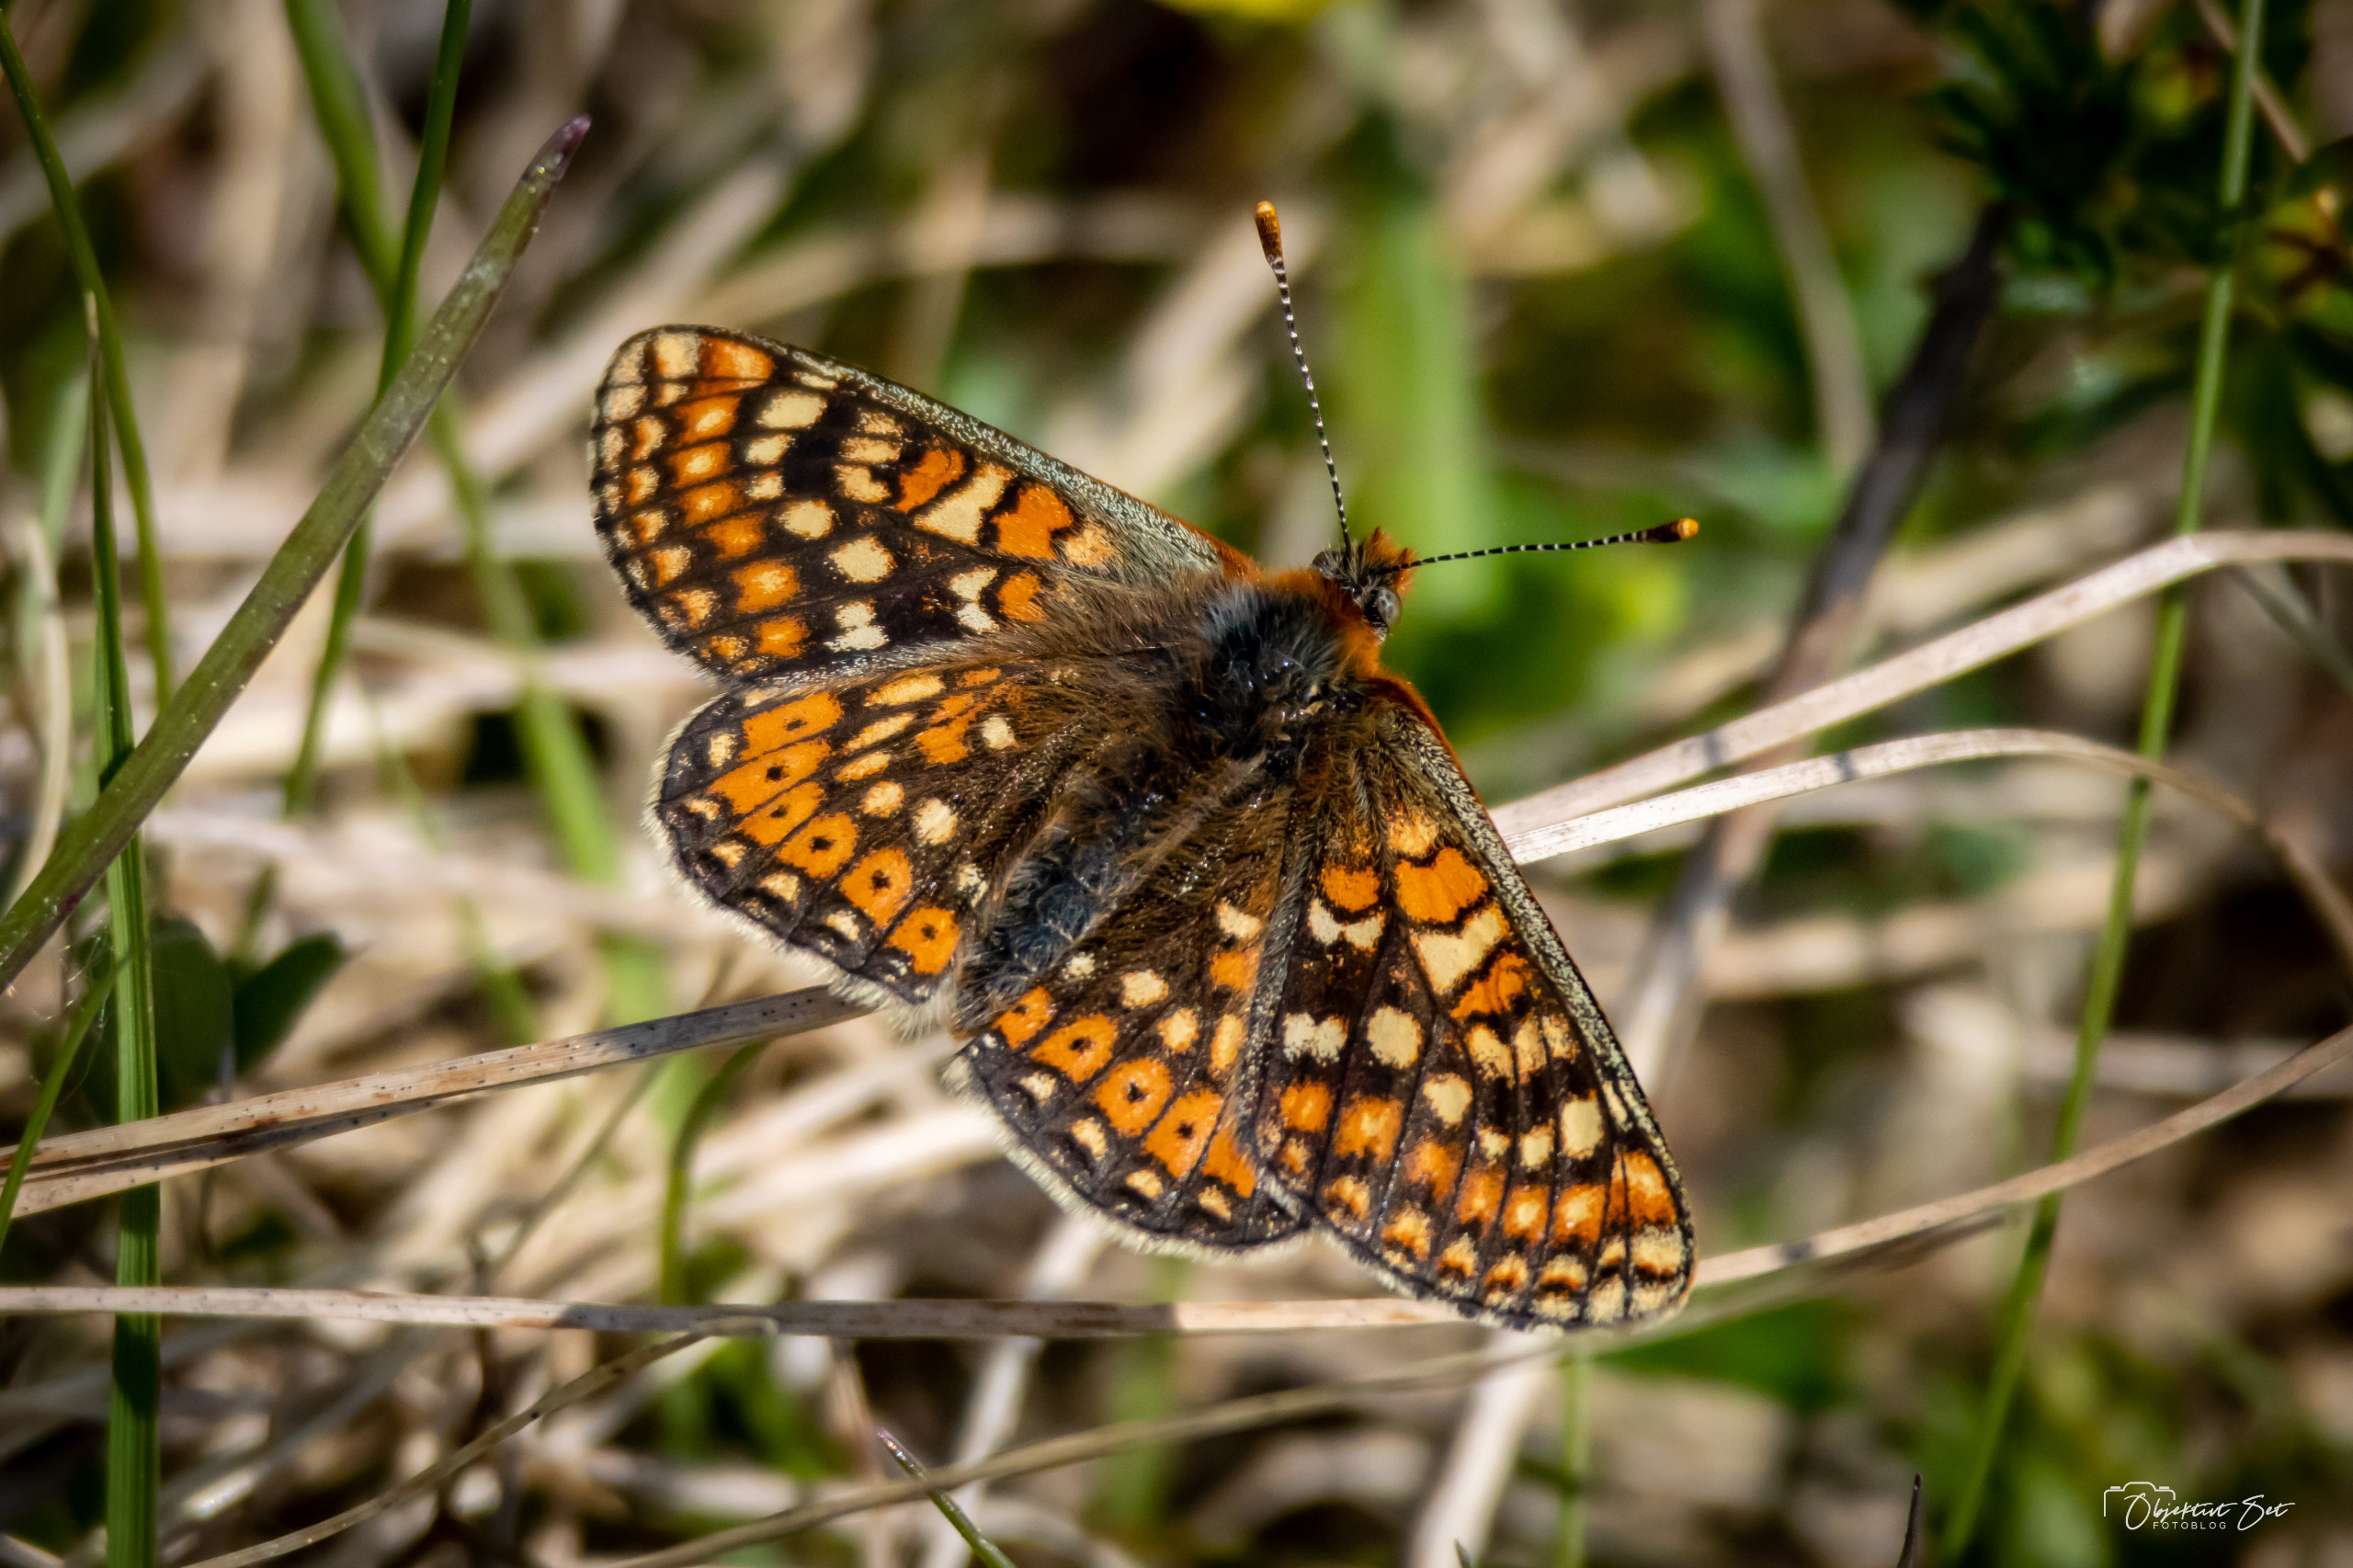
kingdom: Animalia
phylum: Arthropoda
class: Insecta
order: Lepidoptera
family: Nymphalidae
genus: Euphydryas
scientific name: Euphydryas aurinia
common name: Hedepletvinge
